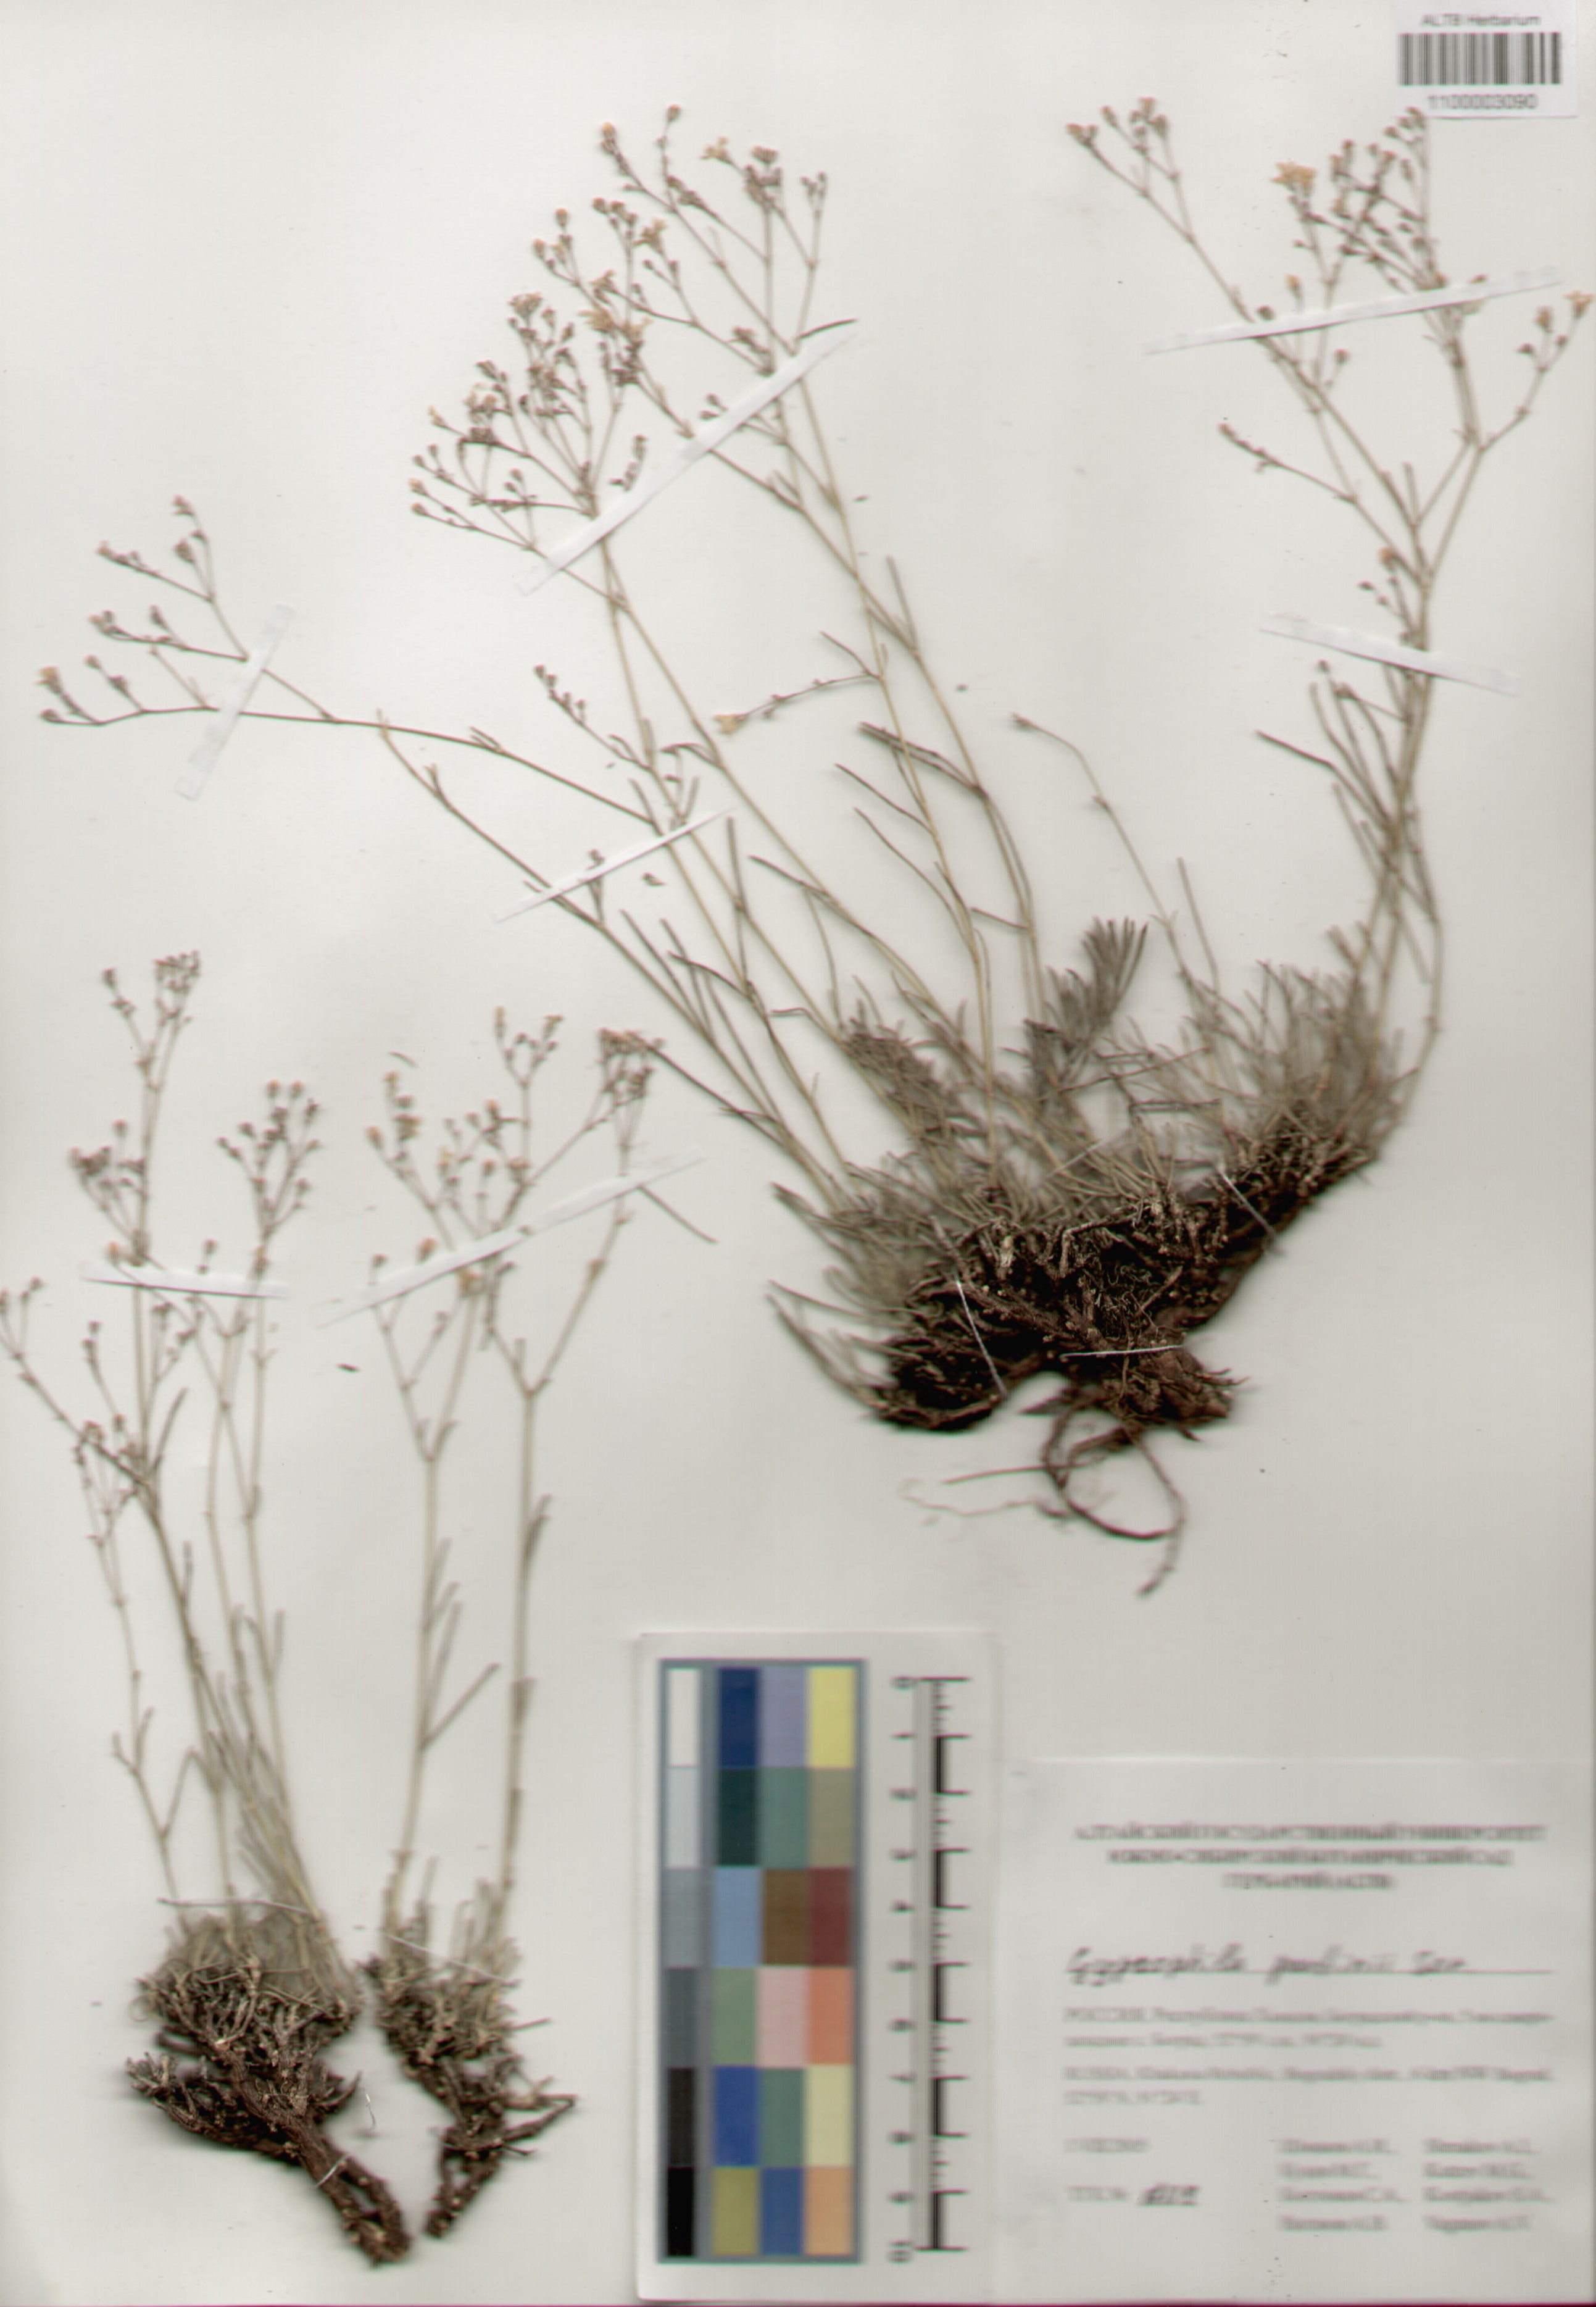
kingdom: Plantae
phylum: Tracheophyta
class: Magnoliopsida
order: Caryophyllales
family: Caryophyllaceae
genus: Gypsophila
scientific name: Gypsophila patrinii
